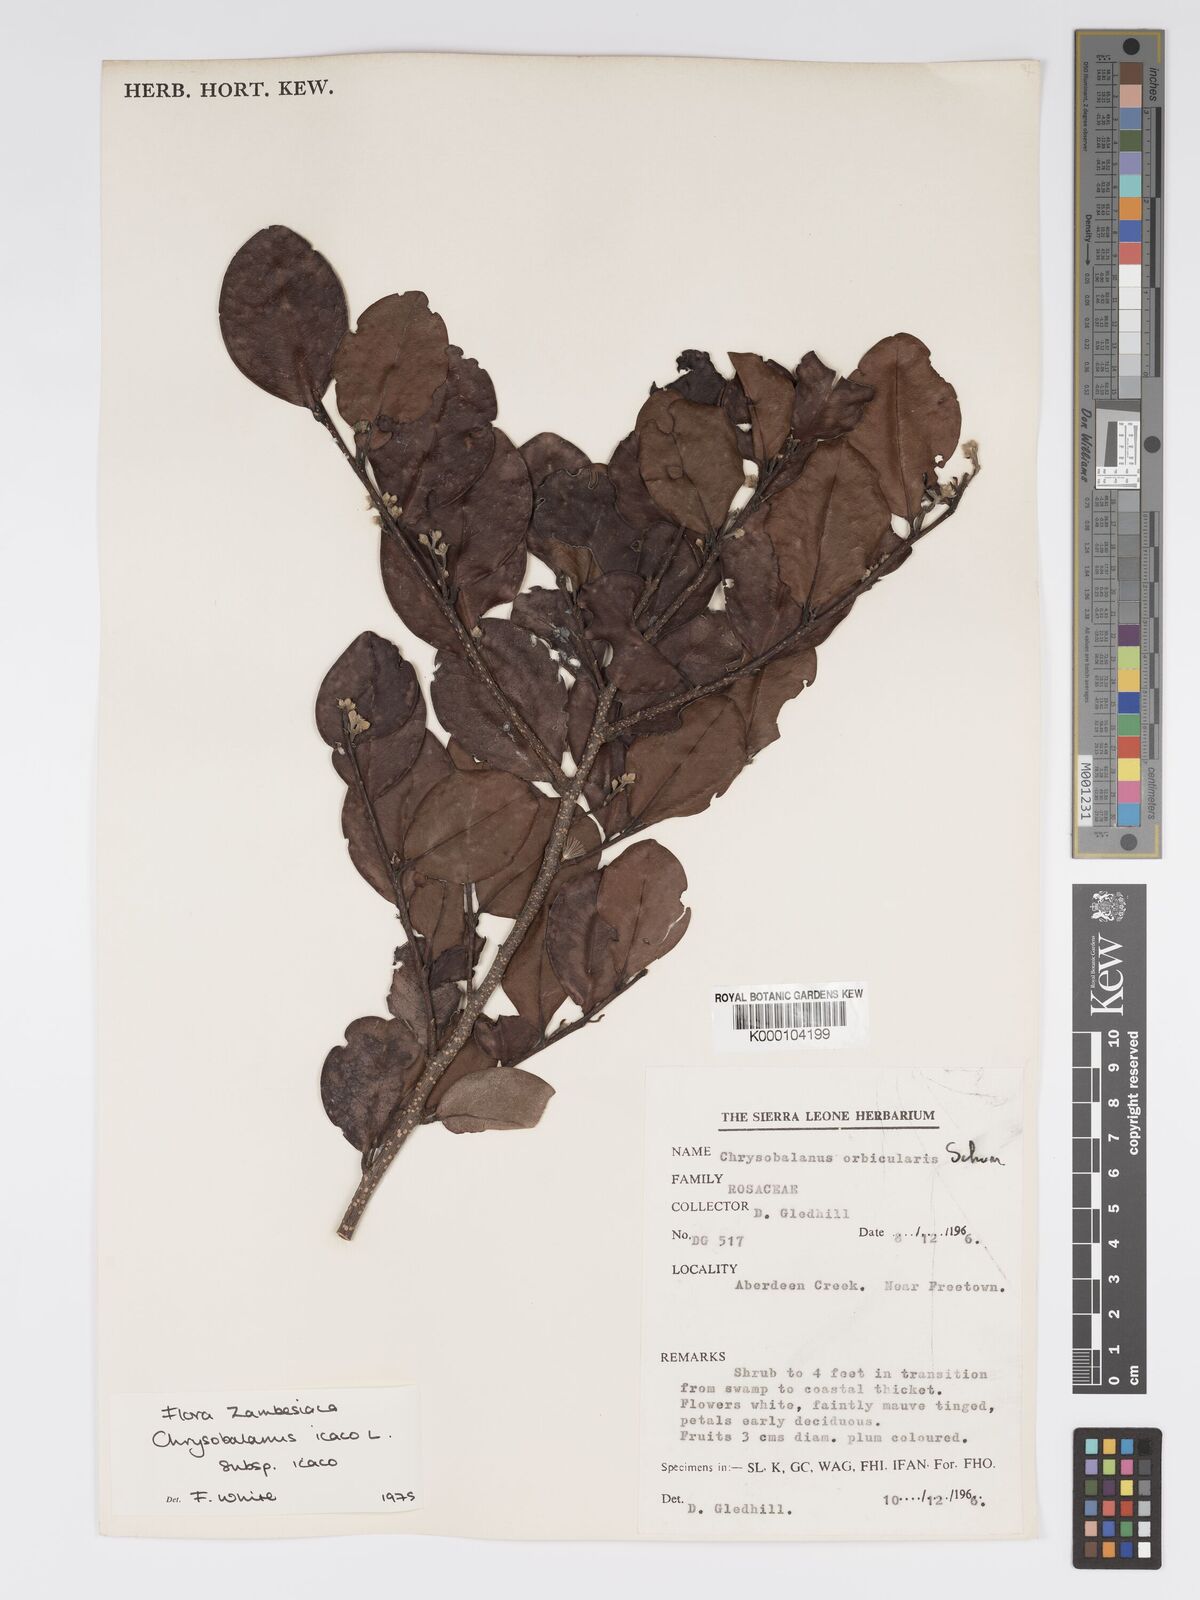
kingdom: Plantae
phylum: Tracheophyta
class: Magnoliopsida
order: Malpighiales
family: Chrysobalanaceae
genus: Chrysobalanus
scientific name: Chrysobalanus icaco
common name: Coco plum
